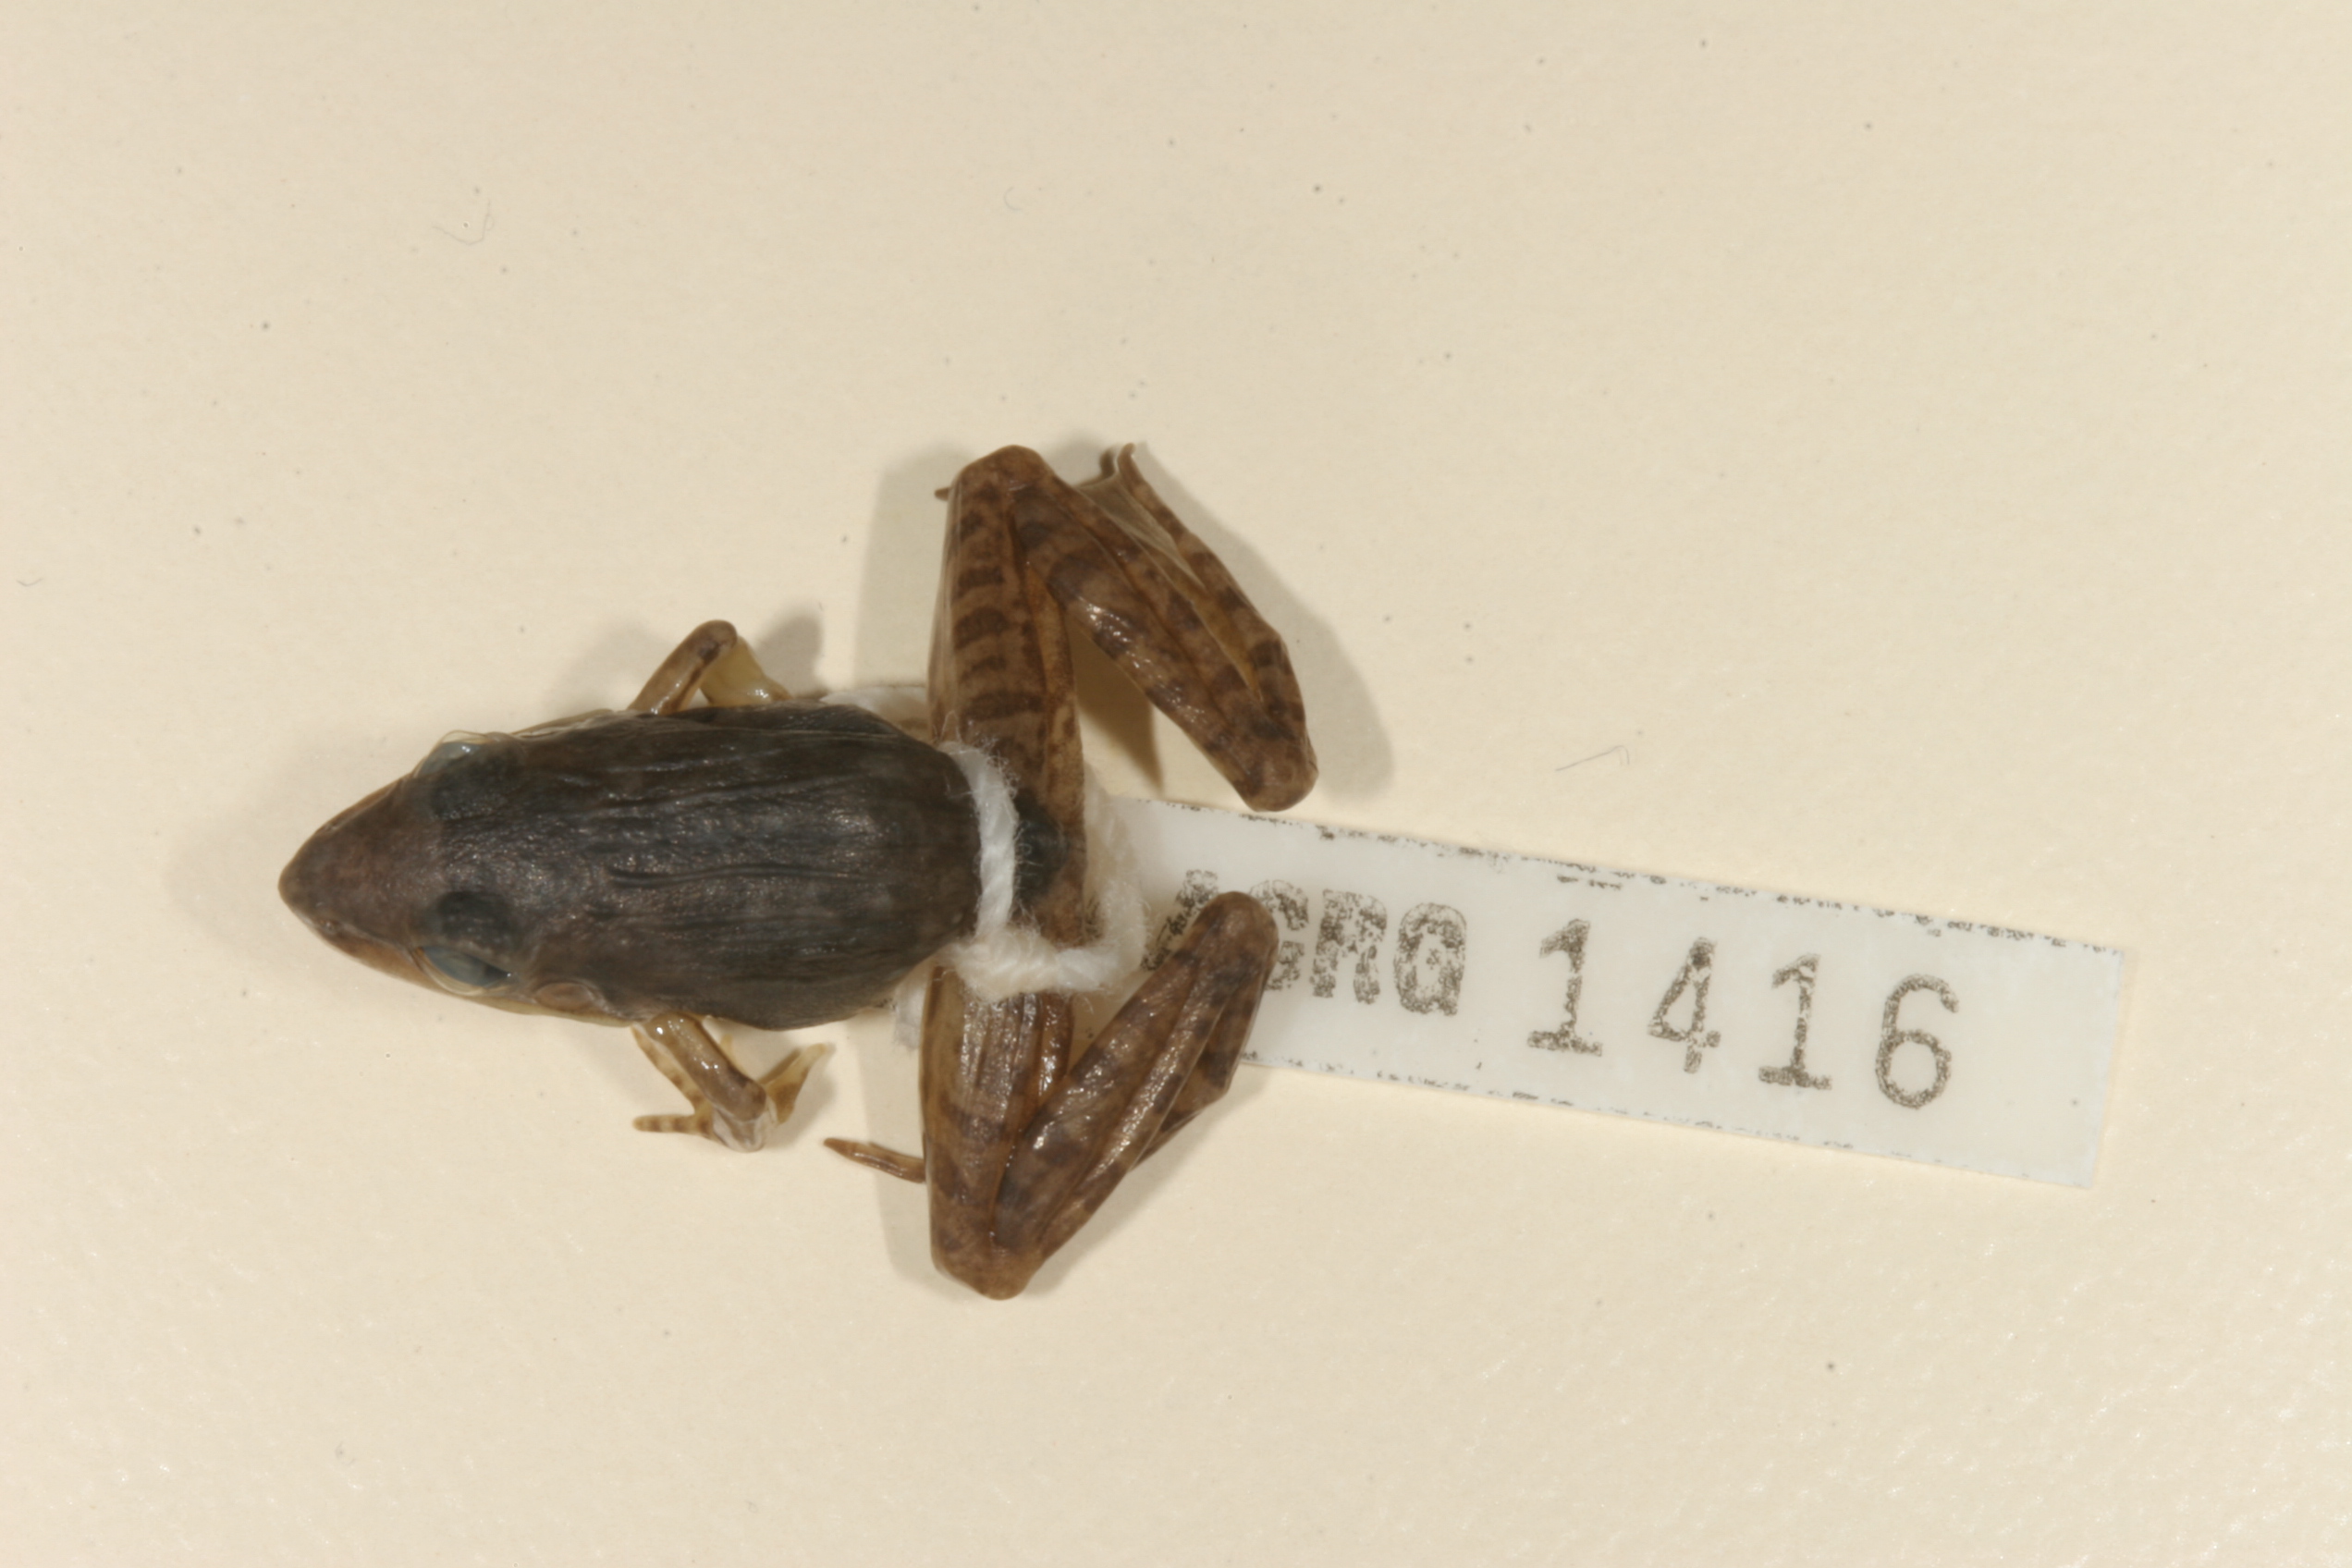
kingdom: Animalia
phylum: Chordata
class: Amphibia
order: Anura
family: Ptychadenidae
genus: Ptychadena
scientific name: Ptychadena anchietae
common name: Anchieta's ridged frog
